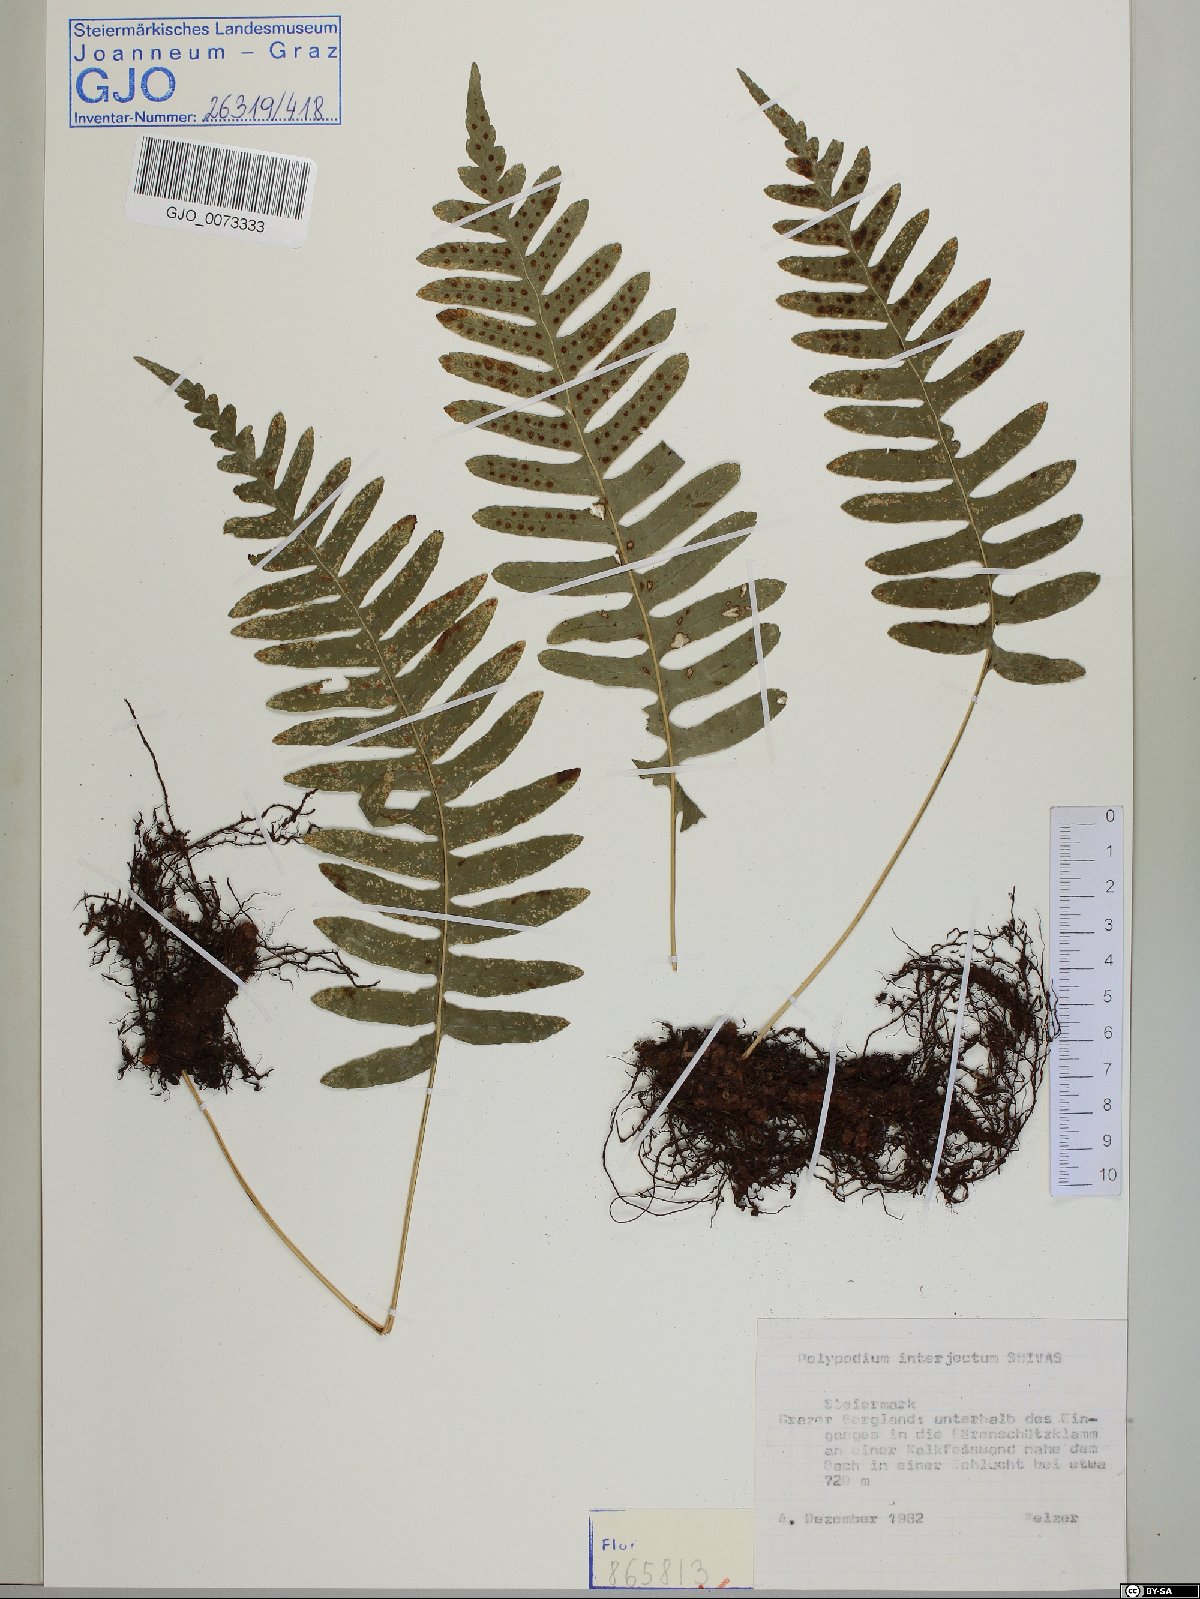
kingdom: Plantae
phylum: Tracheophyta
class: Polypodiopsida
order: Polypodiales
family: Polypodiaceae
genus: Polypodium
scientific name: Polypodium interjectum
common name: Intermediate polypody
